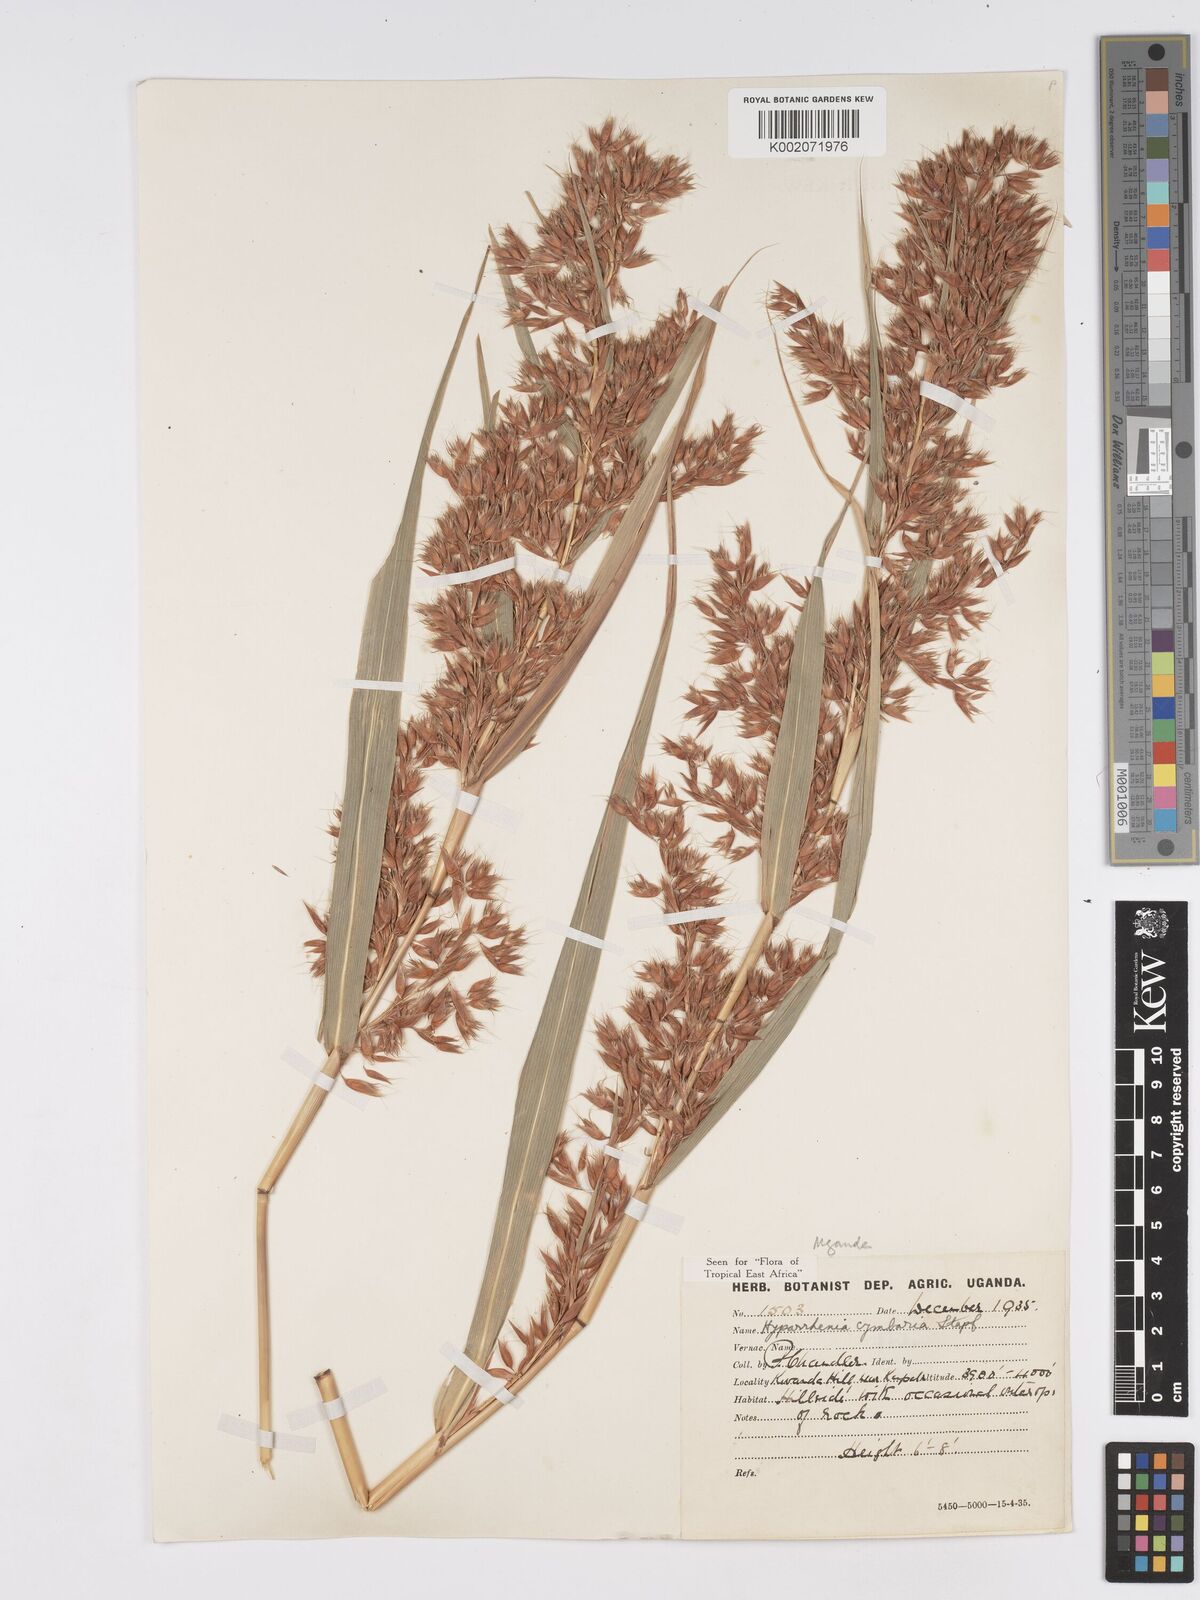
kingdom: Plantae
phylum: Tracheophyta
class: Liliopsida
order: Poales
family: Poaceae
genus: Hyparrhenia
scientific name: Hyparrhenia cymbaria
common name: Boat thatching grass
